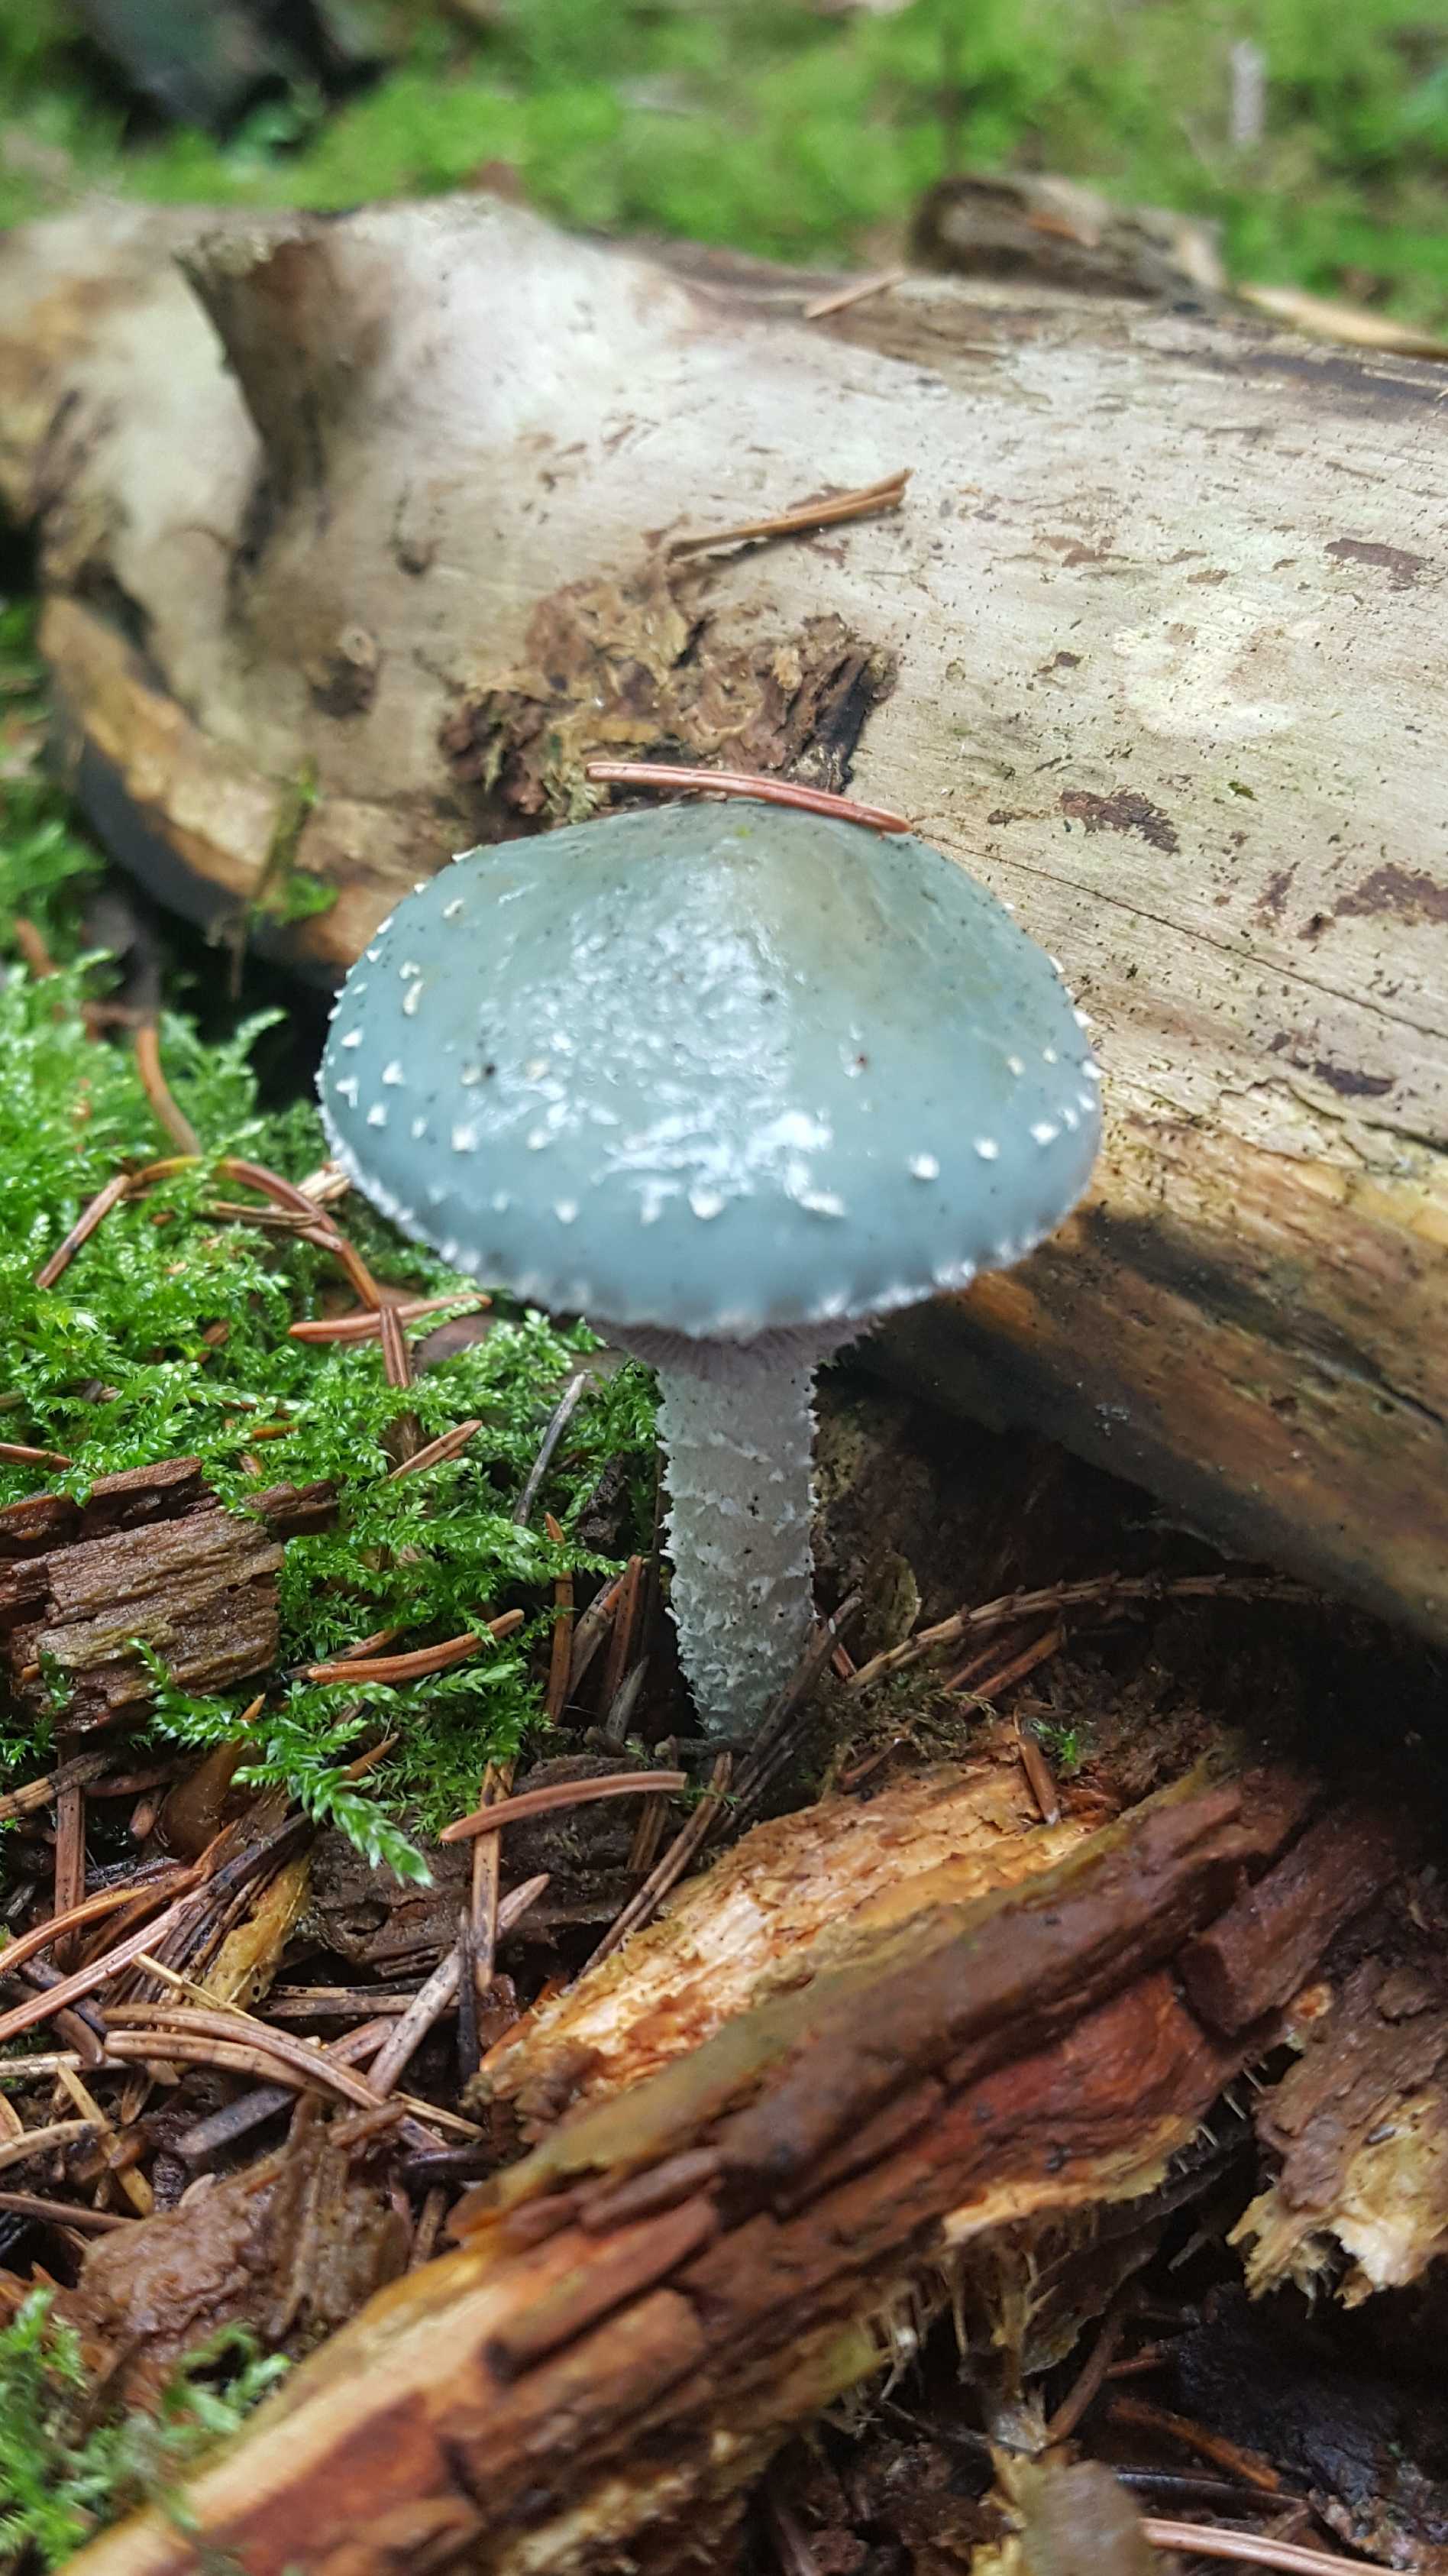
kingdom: Fungi
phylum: Basidiomycota
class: Agaricomycetes
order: Agaricales
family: Strophariaceae
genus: Stropharia
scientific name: Stropharia aeruginosa
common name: spanskgrøn bredblad
